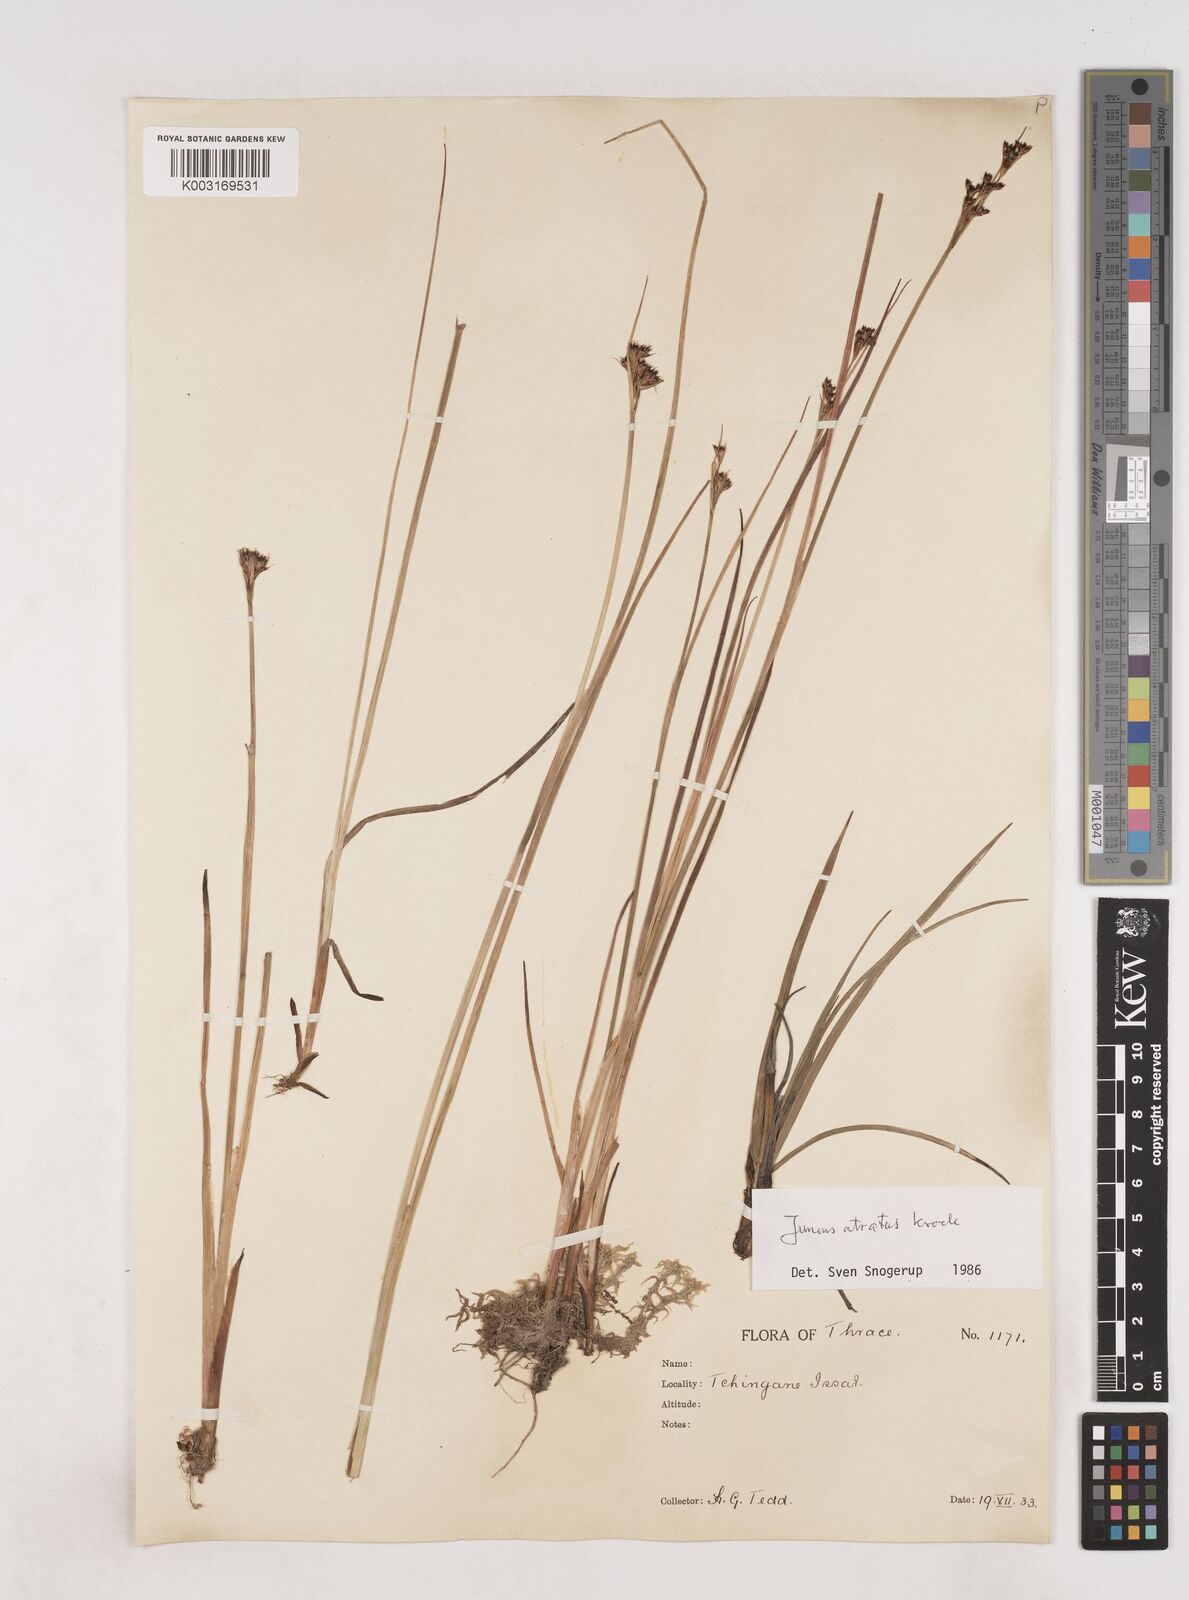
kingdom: Plantae
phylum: Tracheophyta
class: Liliopsida
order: Poales
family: Juncaceae
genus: Juncus
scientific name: Juncus atratus
